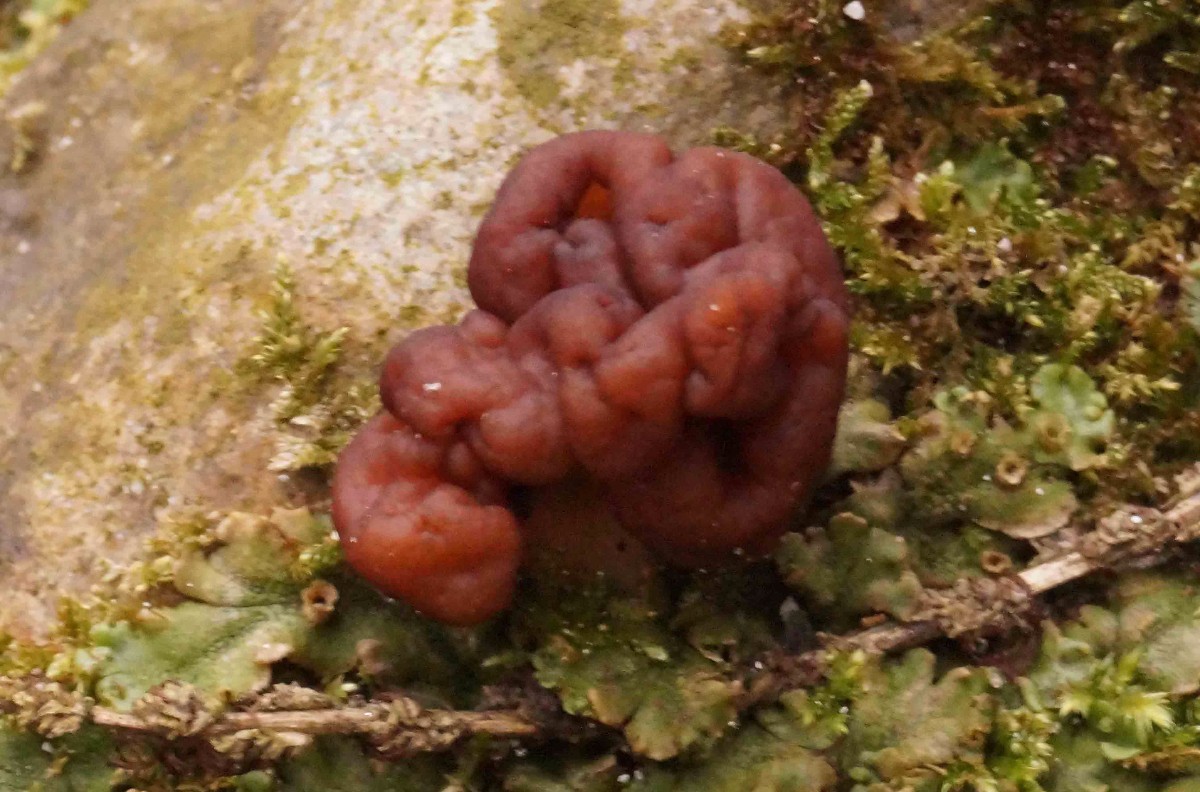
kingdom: Fungi
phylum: Ascomycota
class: Pezizomycetes
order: Pezizales
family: Discinaceae
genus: Gyromitra
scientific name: Gyromitra esculenta
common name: ægte stenmorkel
